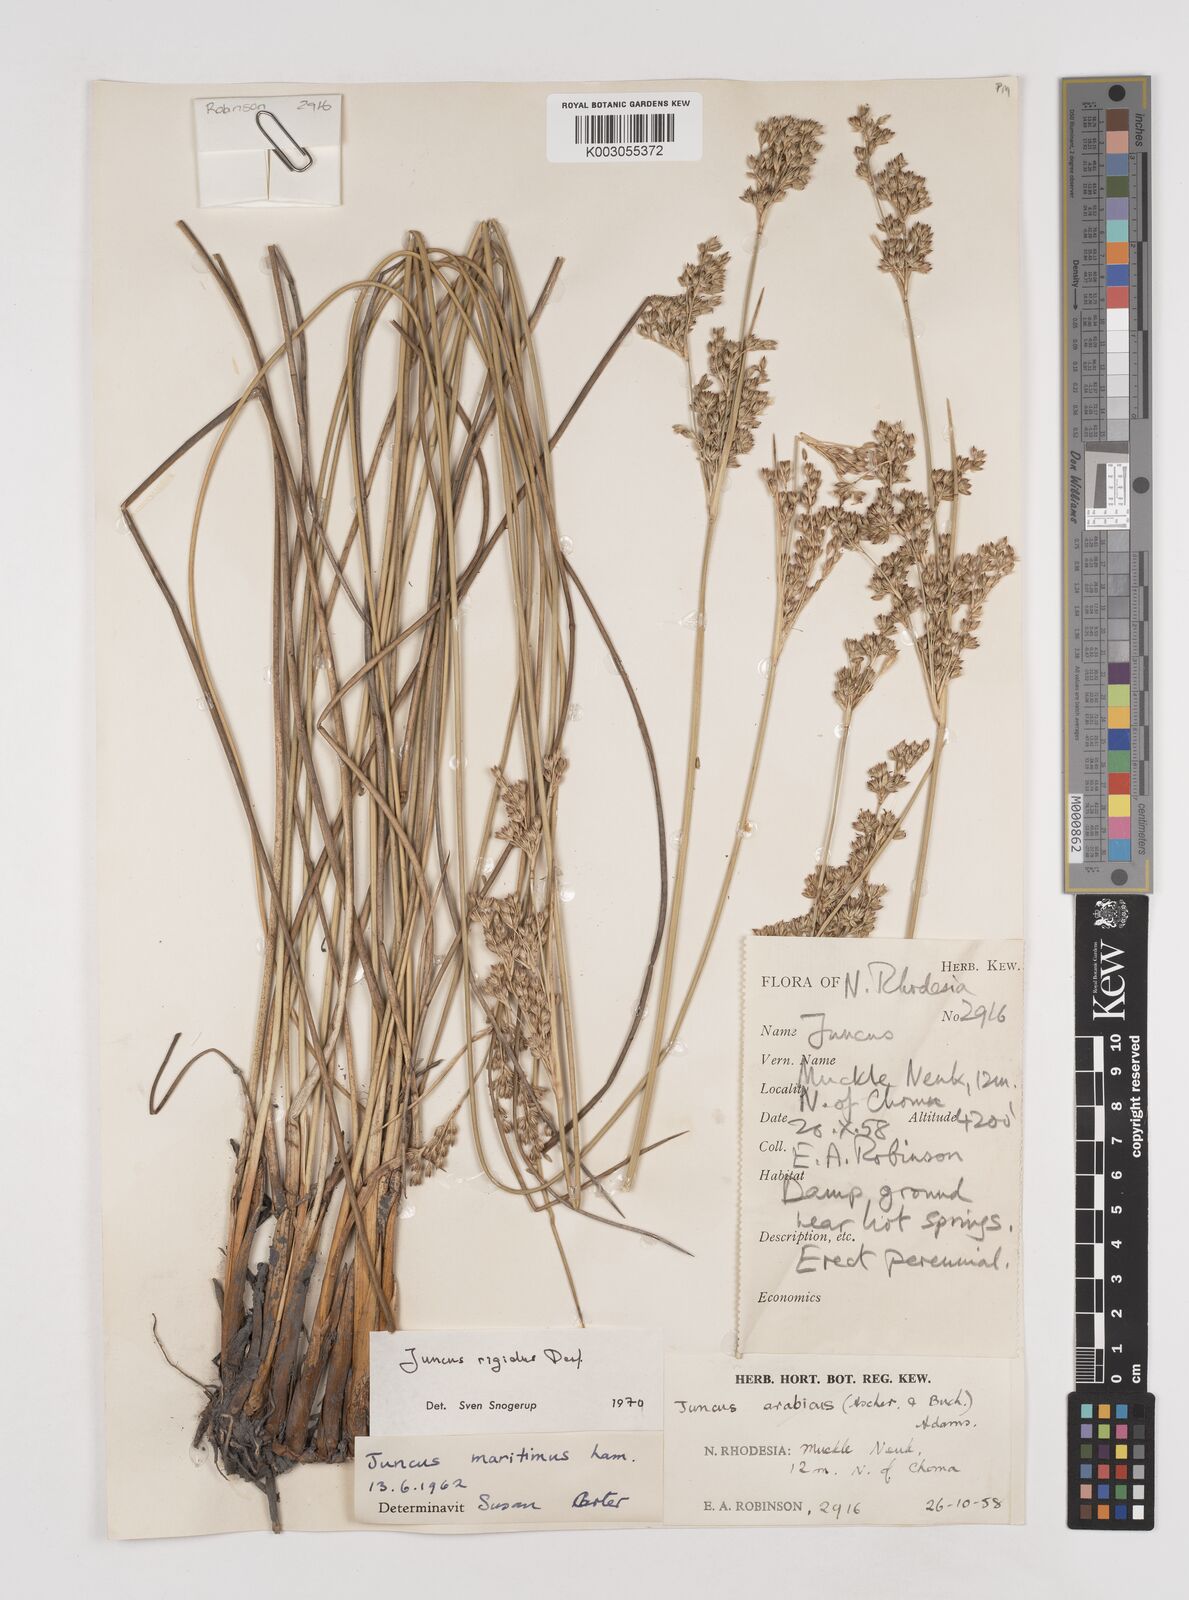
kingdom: Plantae
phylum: Tracheophyta
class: Liliopsida
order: Poales
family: Juncaceae
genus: Juncus
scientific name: Juncus rigidus
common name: Hard sea rush
